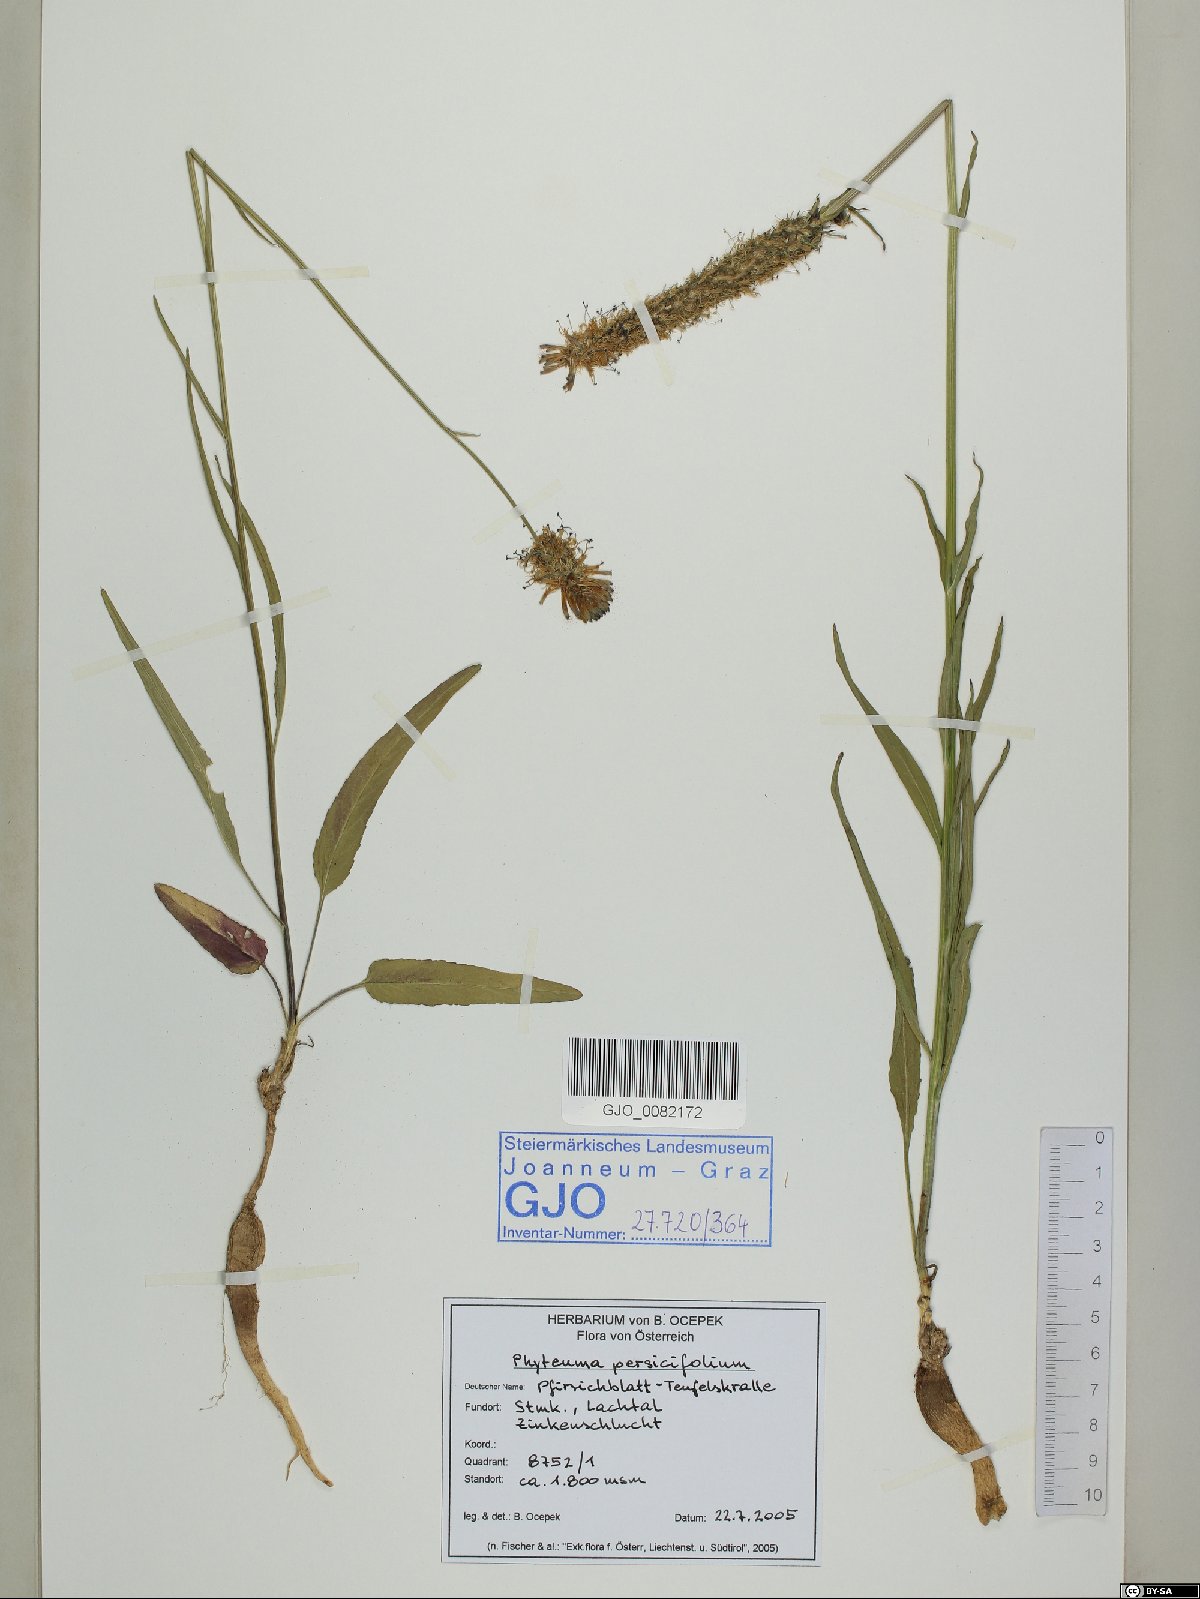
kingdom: Plantae
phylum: Tracheophyta
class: Magnoliopsida
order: Asterales
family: Campanulaceae
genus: Phyteuma
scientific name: Phyteuma persicifolium
